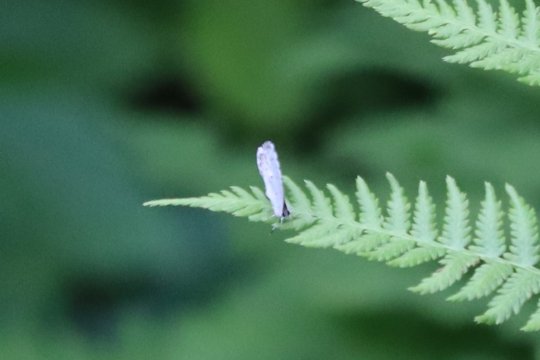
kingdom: Animalia
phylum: Arthropoda
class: Insecta
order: Lepidoptera
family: Lycaenidae
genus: Cyaniris
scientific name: Cyaniris neglecta
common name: Summer Azure
